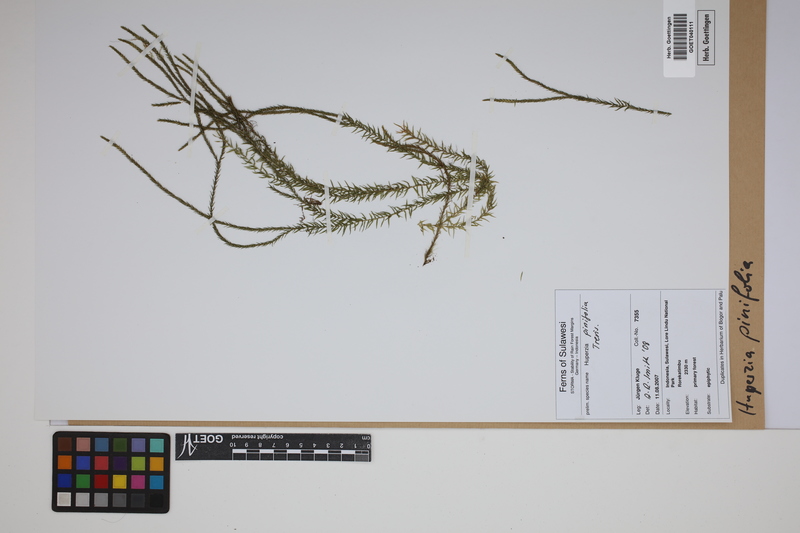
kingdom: Plantae
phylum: Tracheophyta
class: Lycopodiopsida
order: Lycopodiales
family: Lycopodiaceae
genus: Phlegmariurus
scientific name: Phlegmariurus pinifolius
